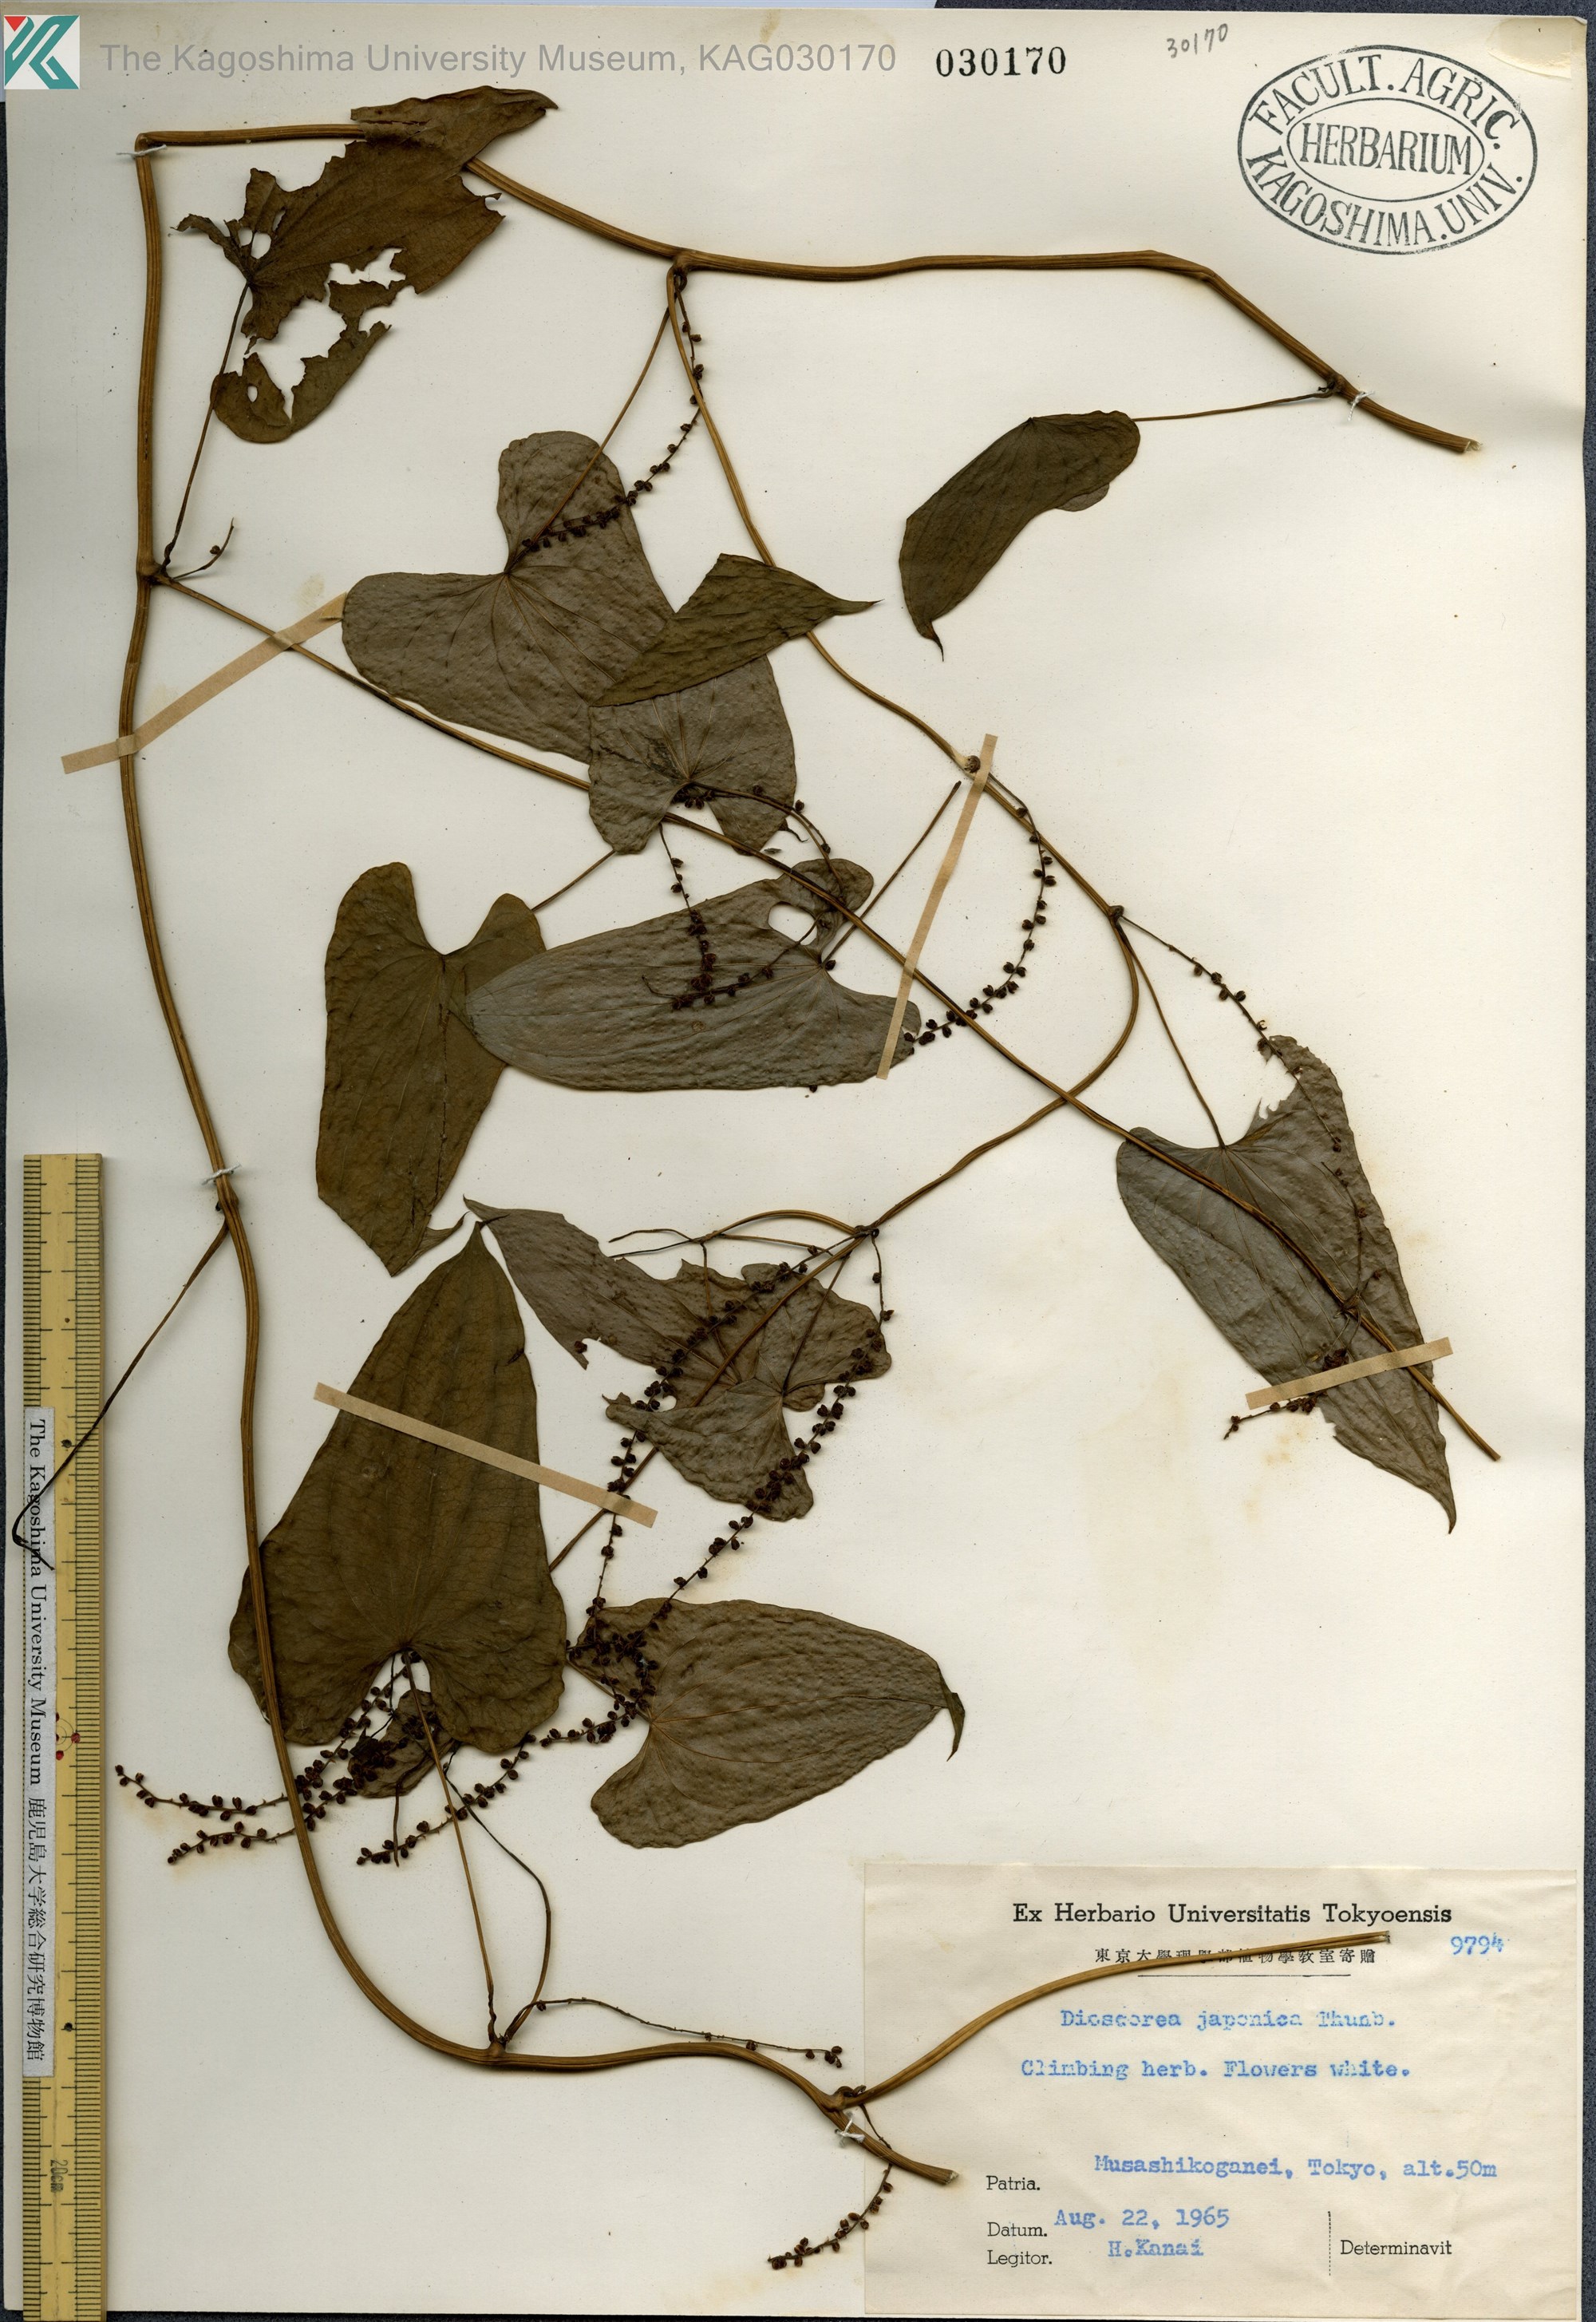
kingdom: Plantae
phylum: Tracheophyta
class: Liliopsida
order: Dioscoreales
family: Dioscoreaceae
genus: Dioscorea
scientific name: Dioscorea japonica
